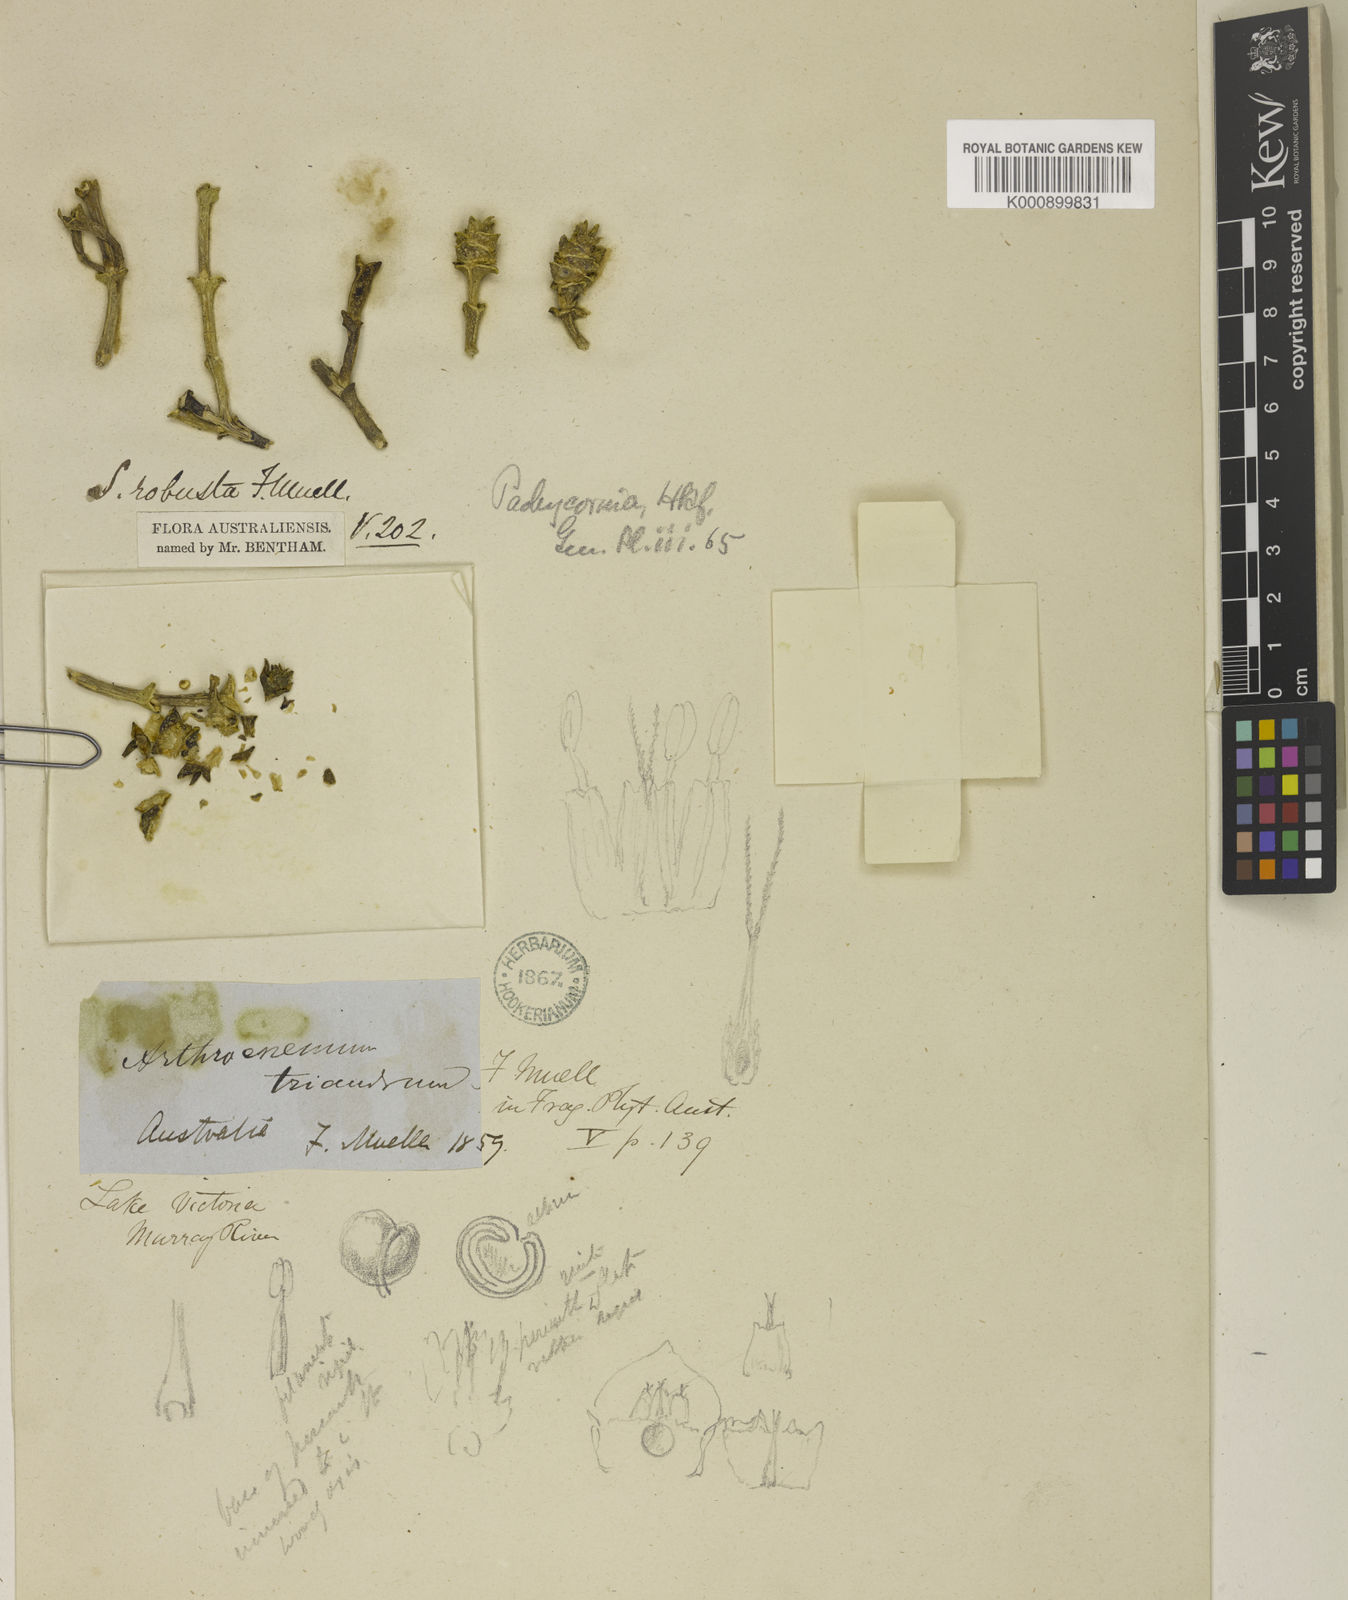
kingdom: Plantae
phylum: Tracheophyta
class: Magnoliopsida
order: Caryophyllales
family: Amaranthaceae
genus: Tecticornia
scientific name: Tecticornia triandra
